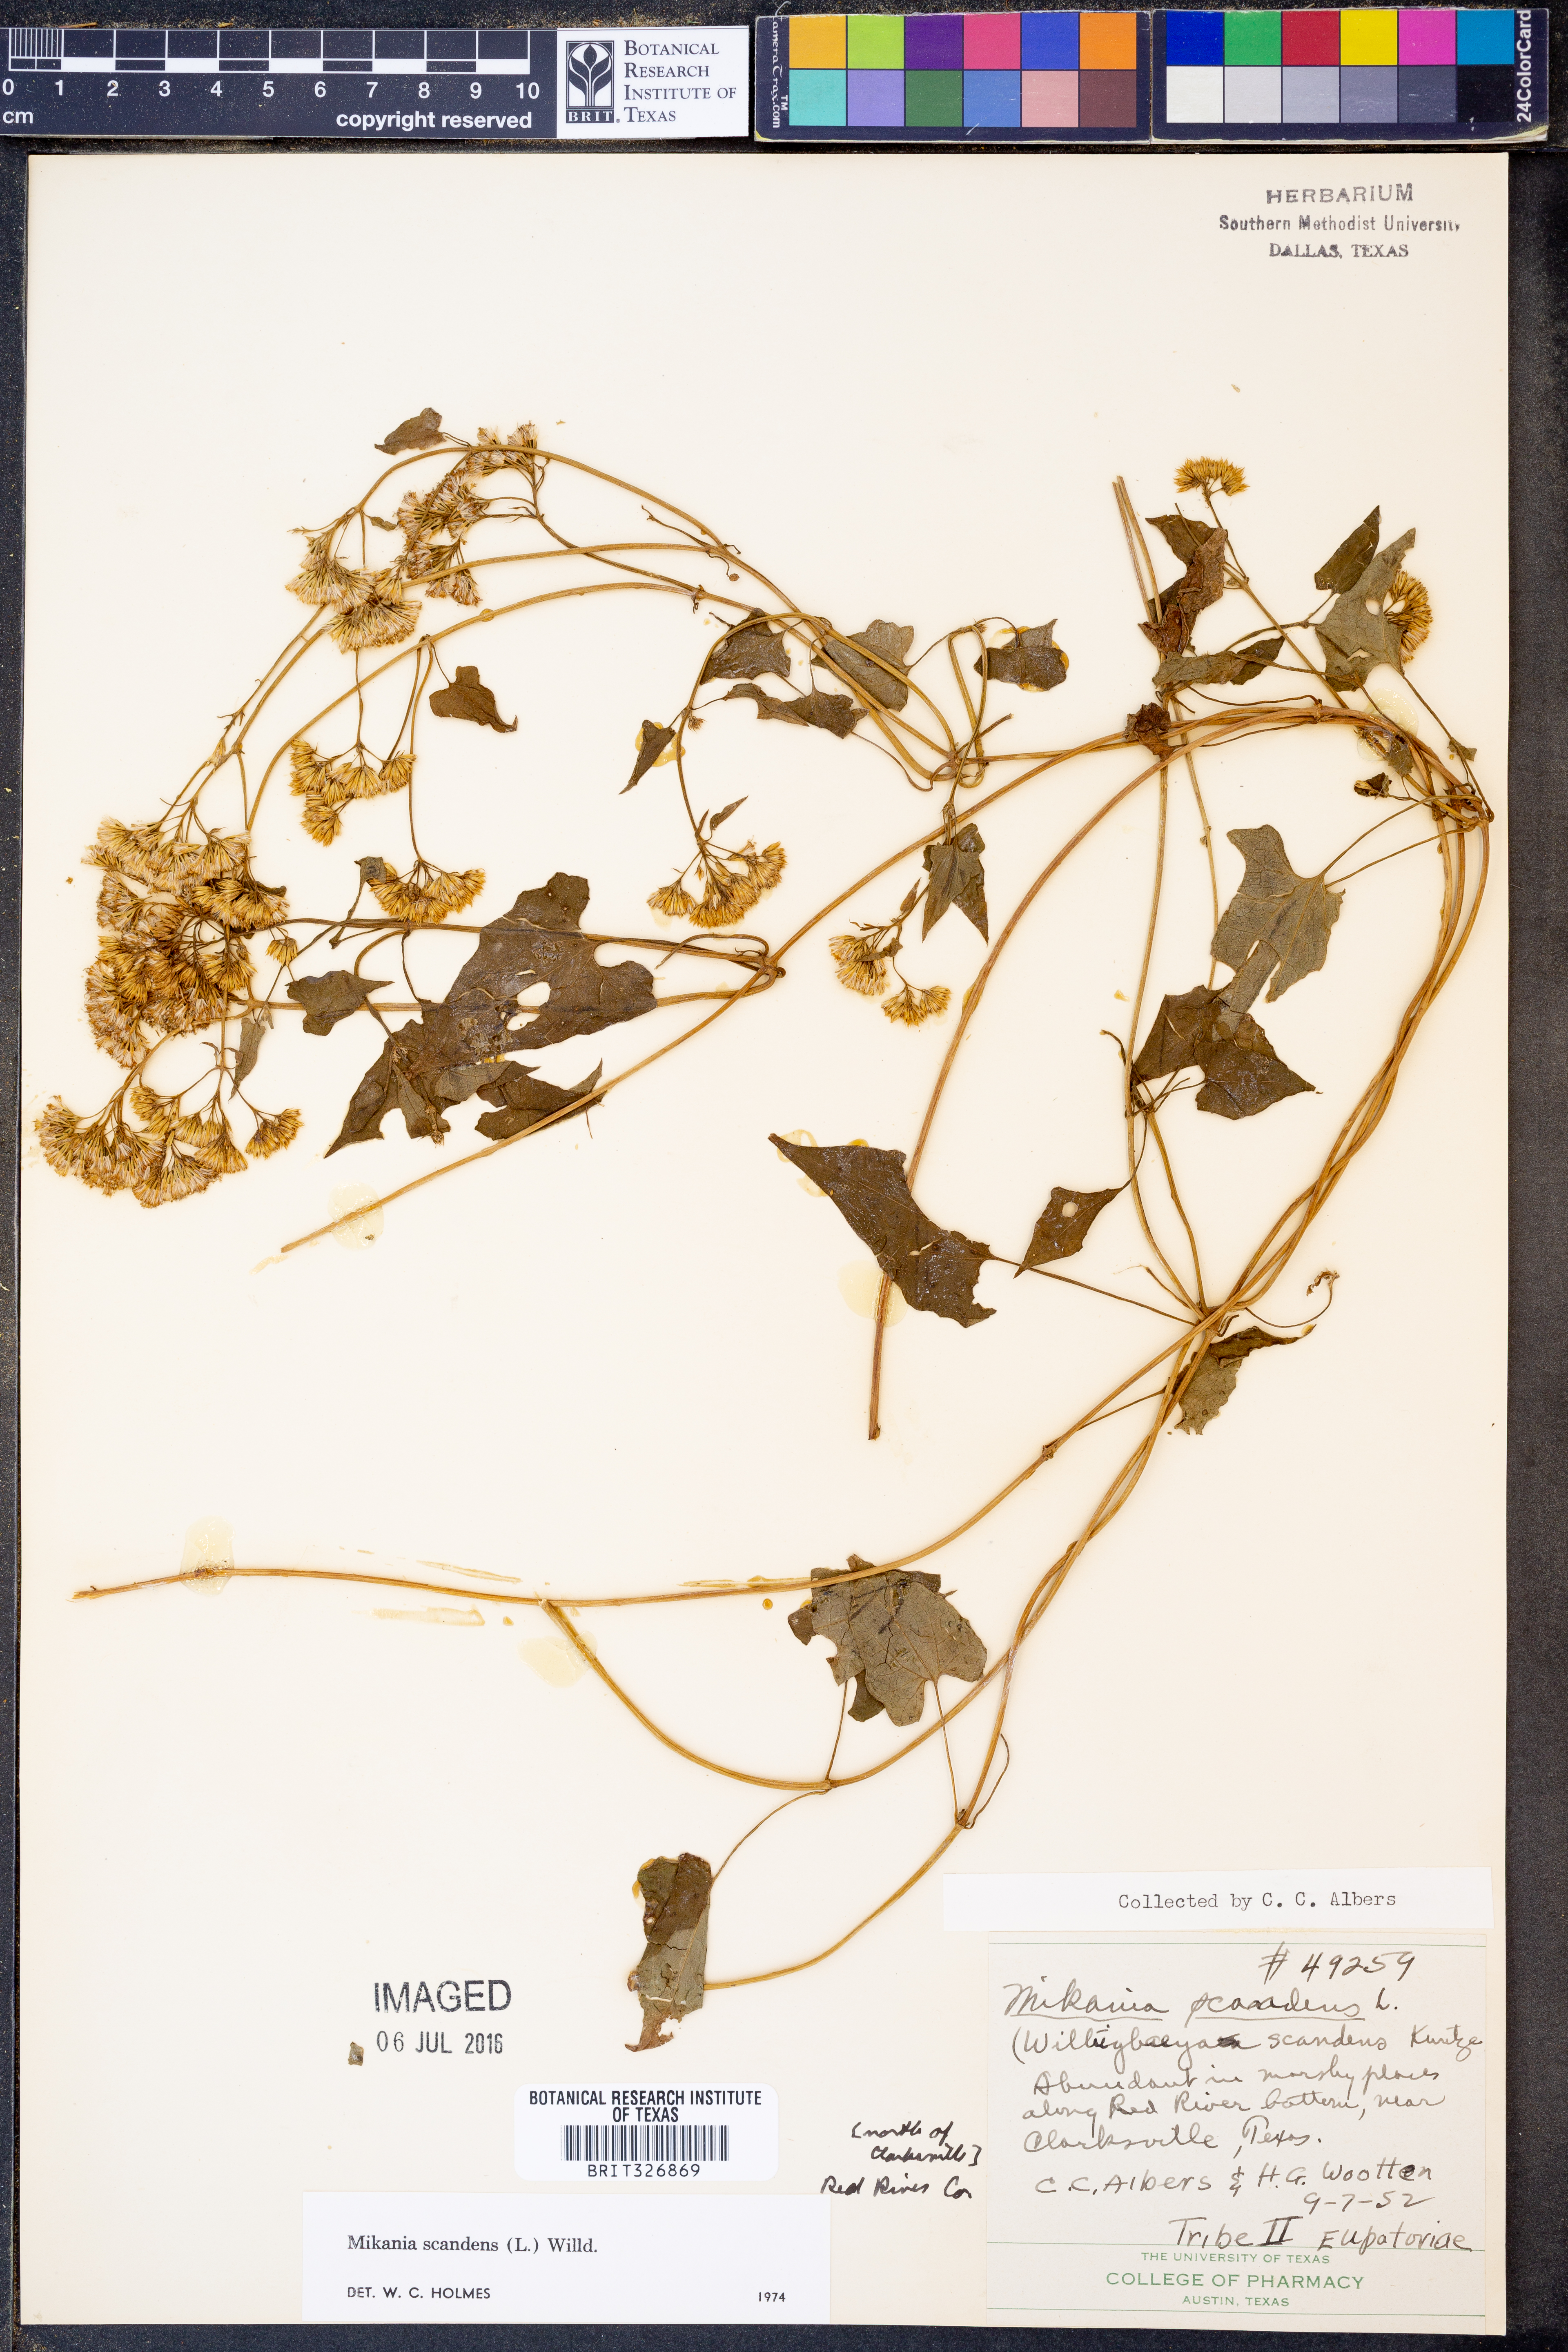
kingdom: Plantae
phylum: Tracheophyta
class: Magnoliopsida
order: Asterales
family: Asteraceae
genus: Mikania
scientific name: Mikania scandens
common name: Climbing hempvine
